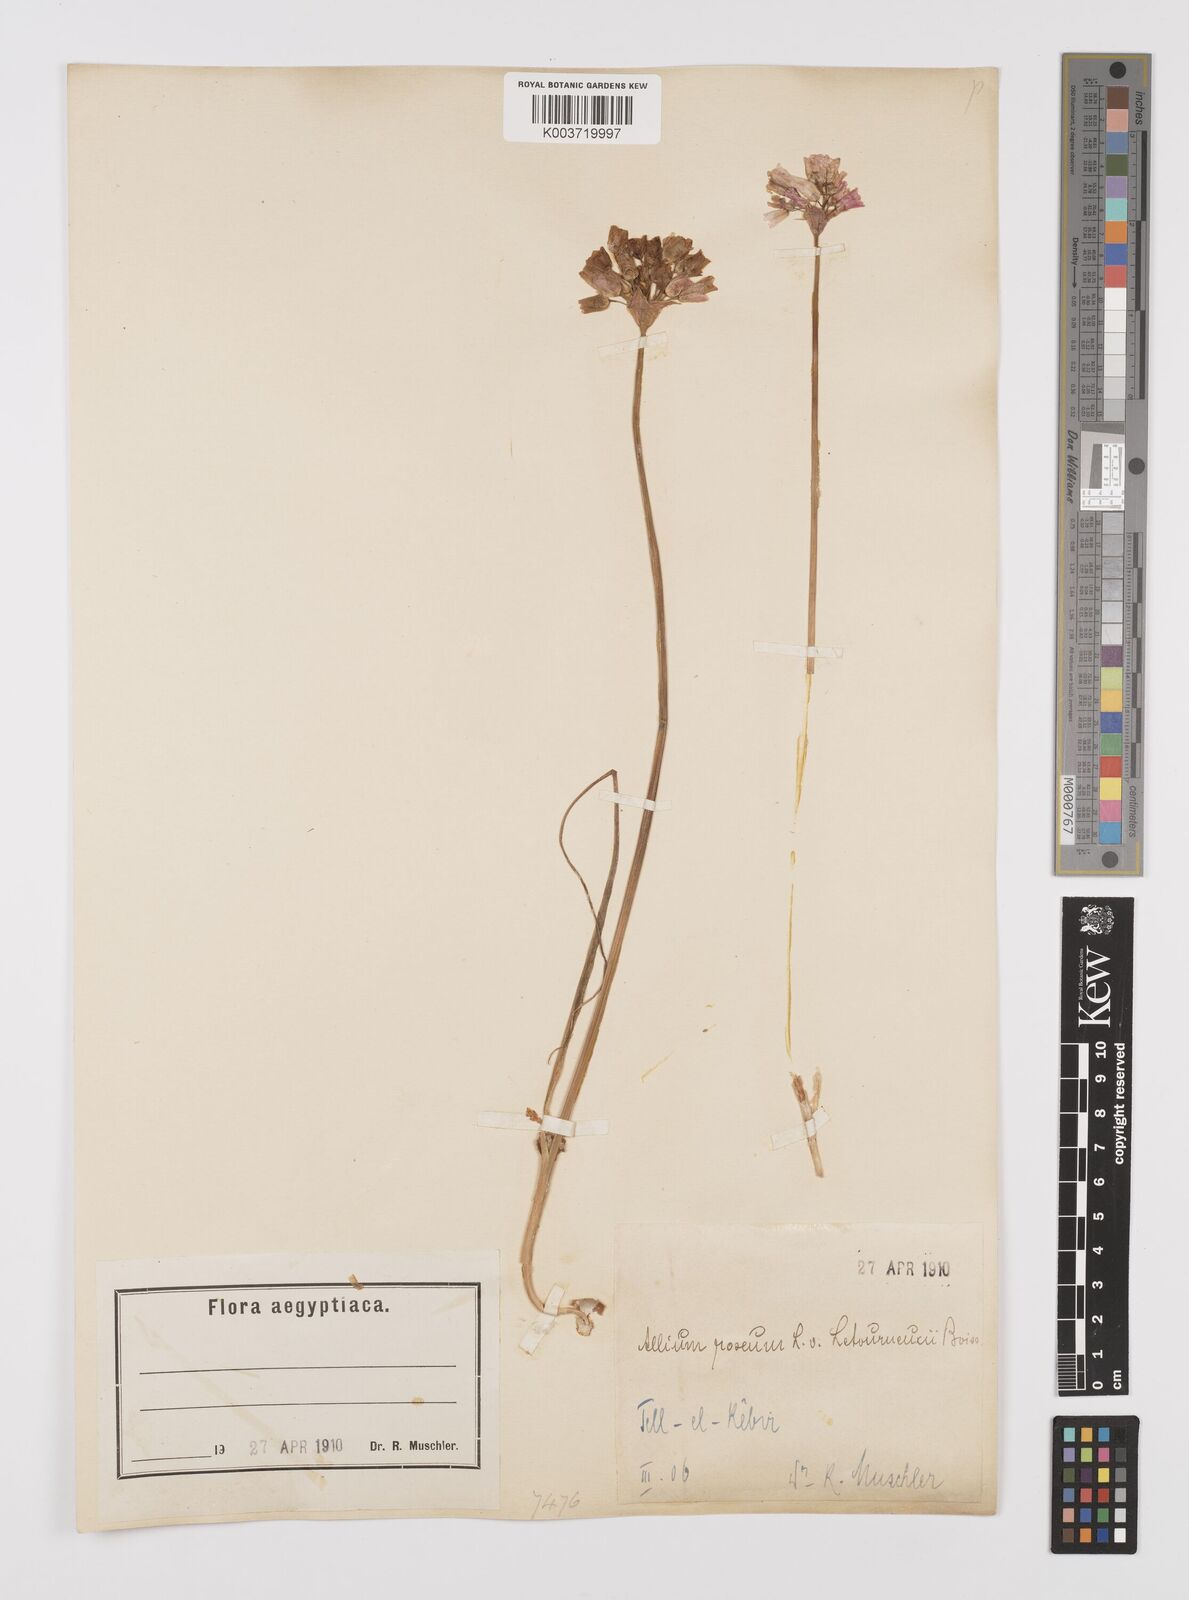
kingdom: Plantae
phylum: Tracheophyta
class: Liliopsida
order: Asparagales
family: Amaryllidaceae
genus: Allium
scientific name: Allium roseum
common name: Rosy garlic
